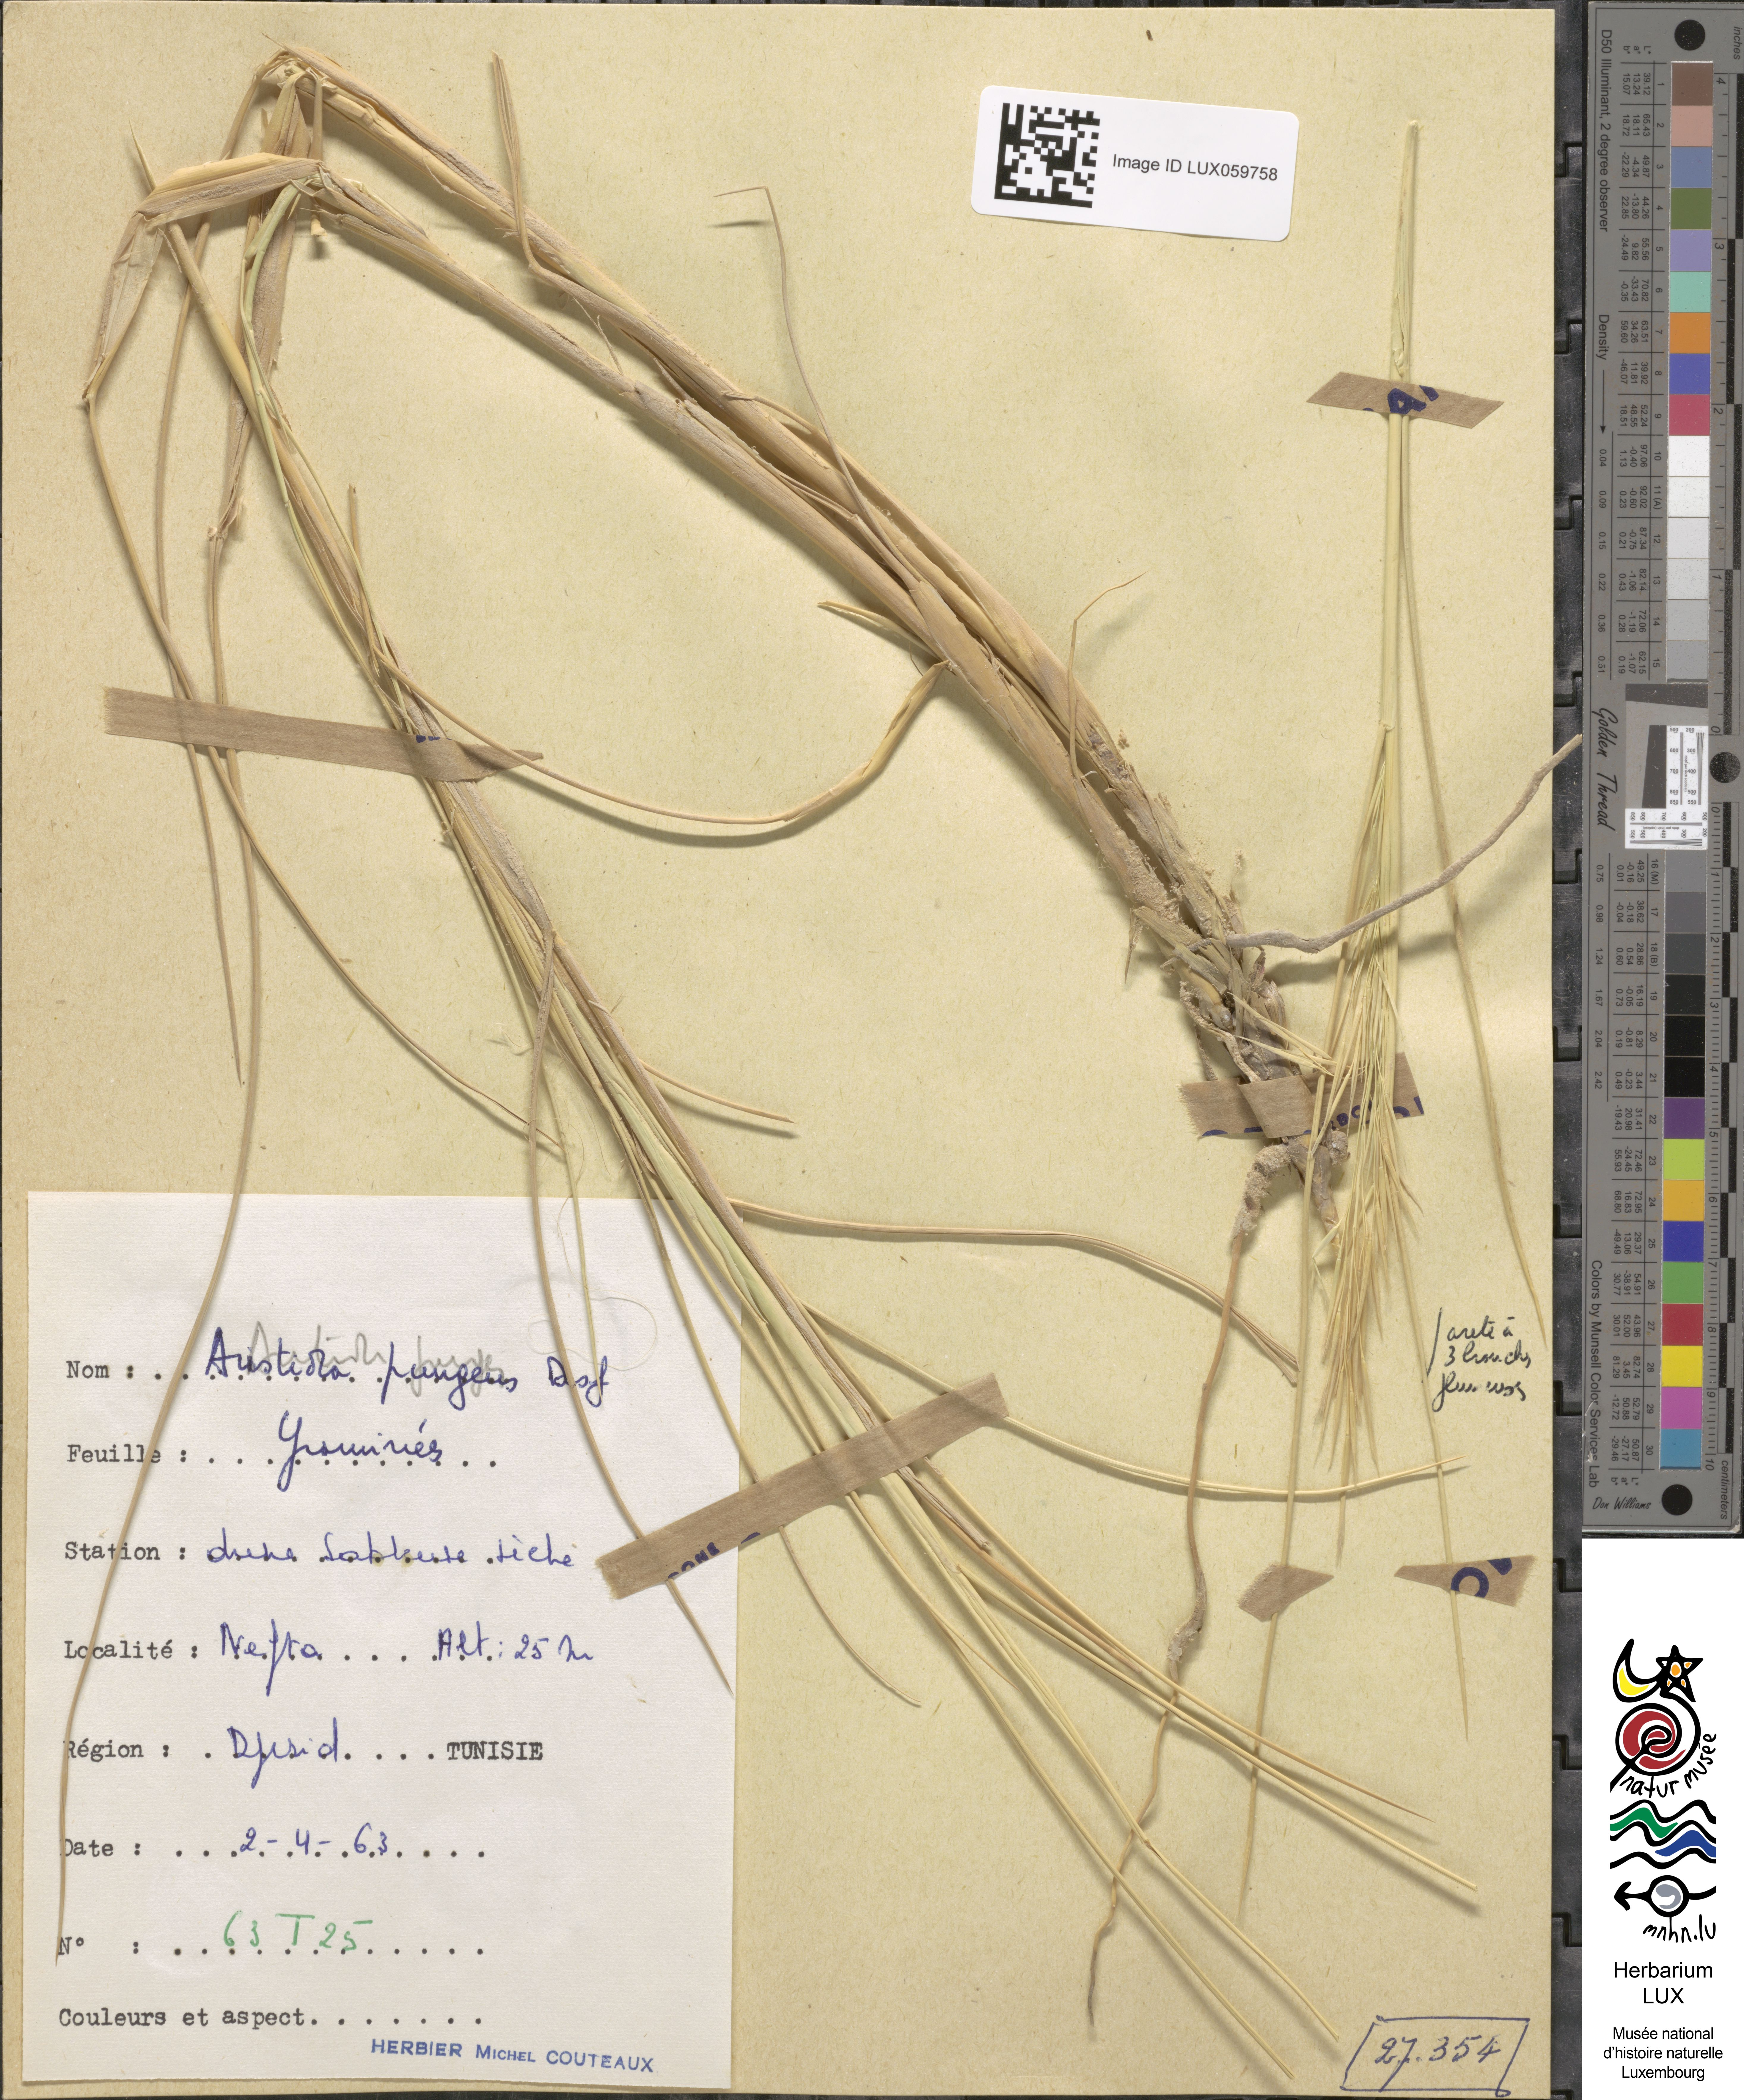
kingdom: Plantae
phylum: Tracheophyta
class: Liliopsida
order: Poales
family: Poaceae
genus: Stipagrostis
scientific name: Stipagrostis pungens
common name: Three-awn grass
